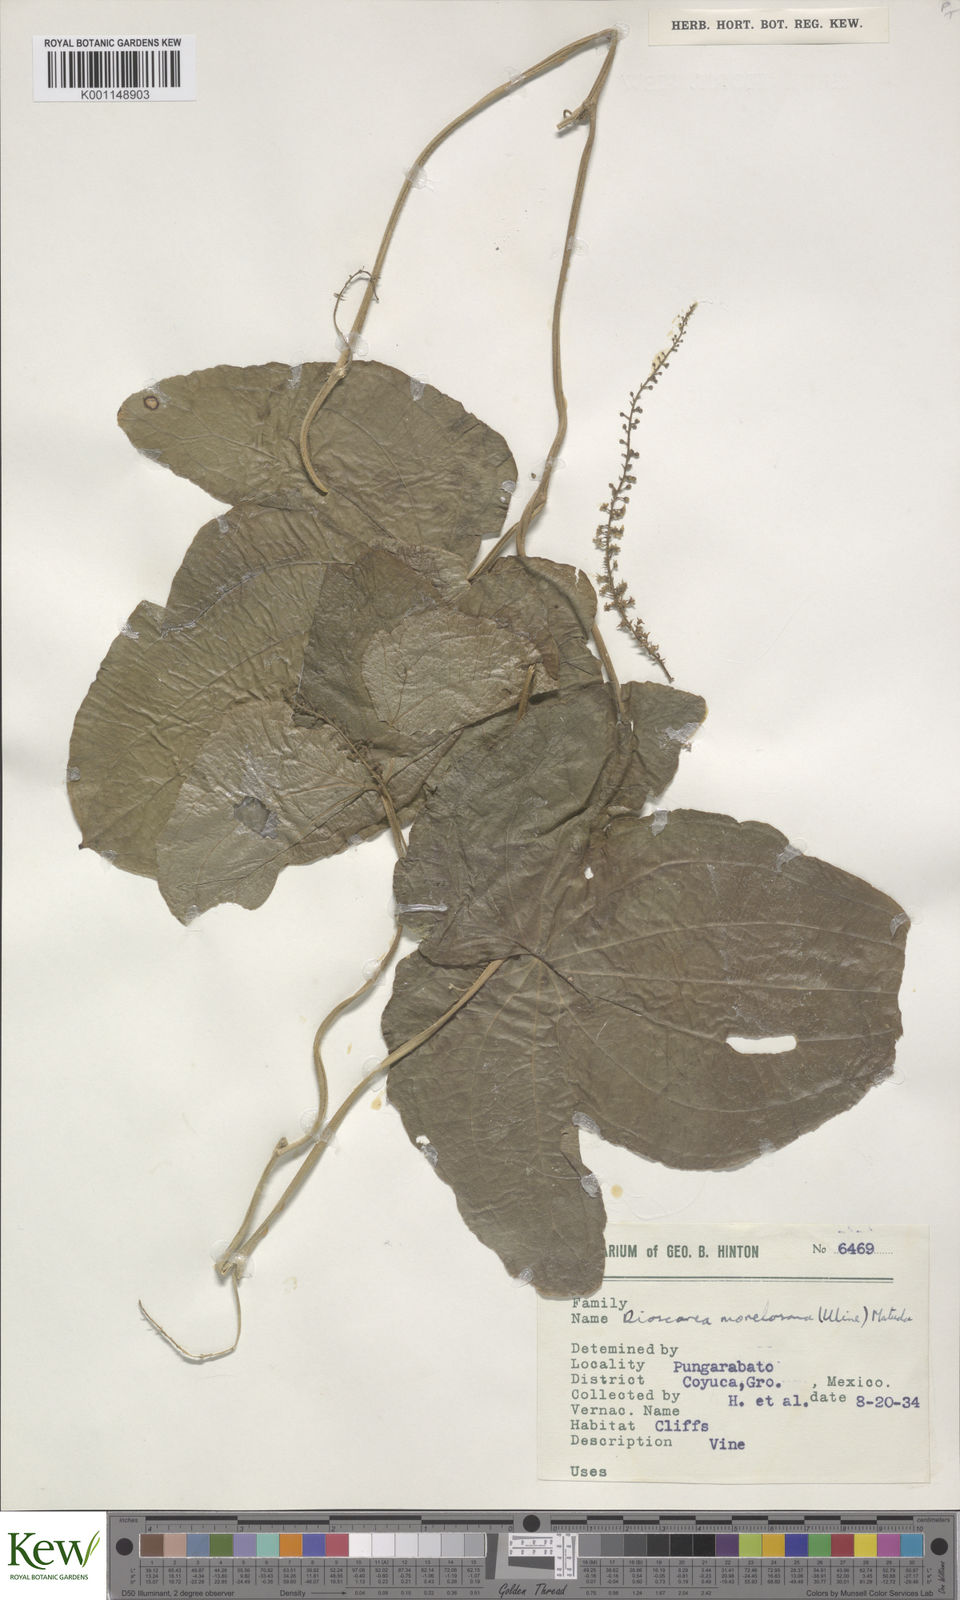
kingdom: Plantae
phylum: Tracheophyta
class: Liliopsida
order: Dioscoreales
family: Dioscoreaceae
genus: Dioscorea
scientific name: Dioscorea morelosana
